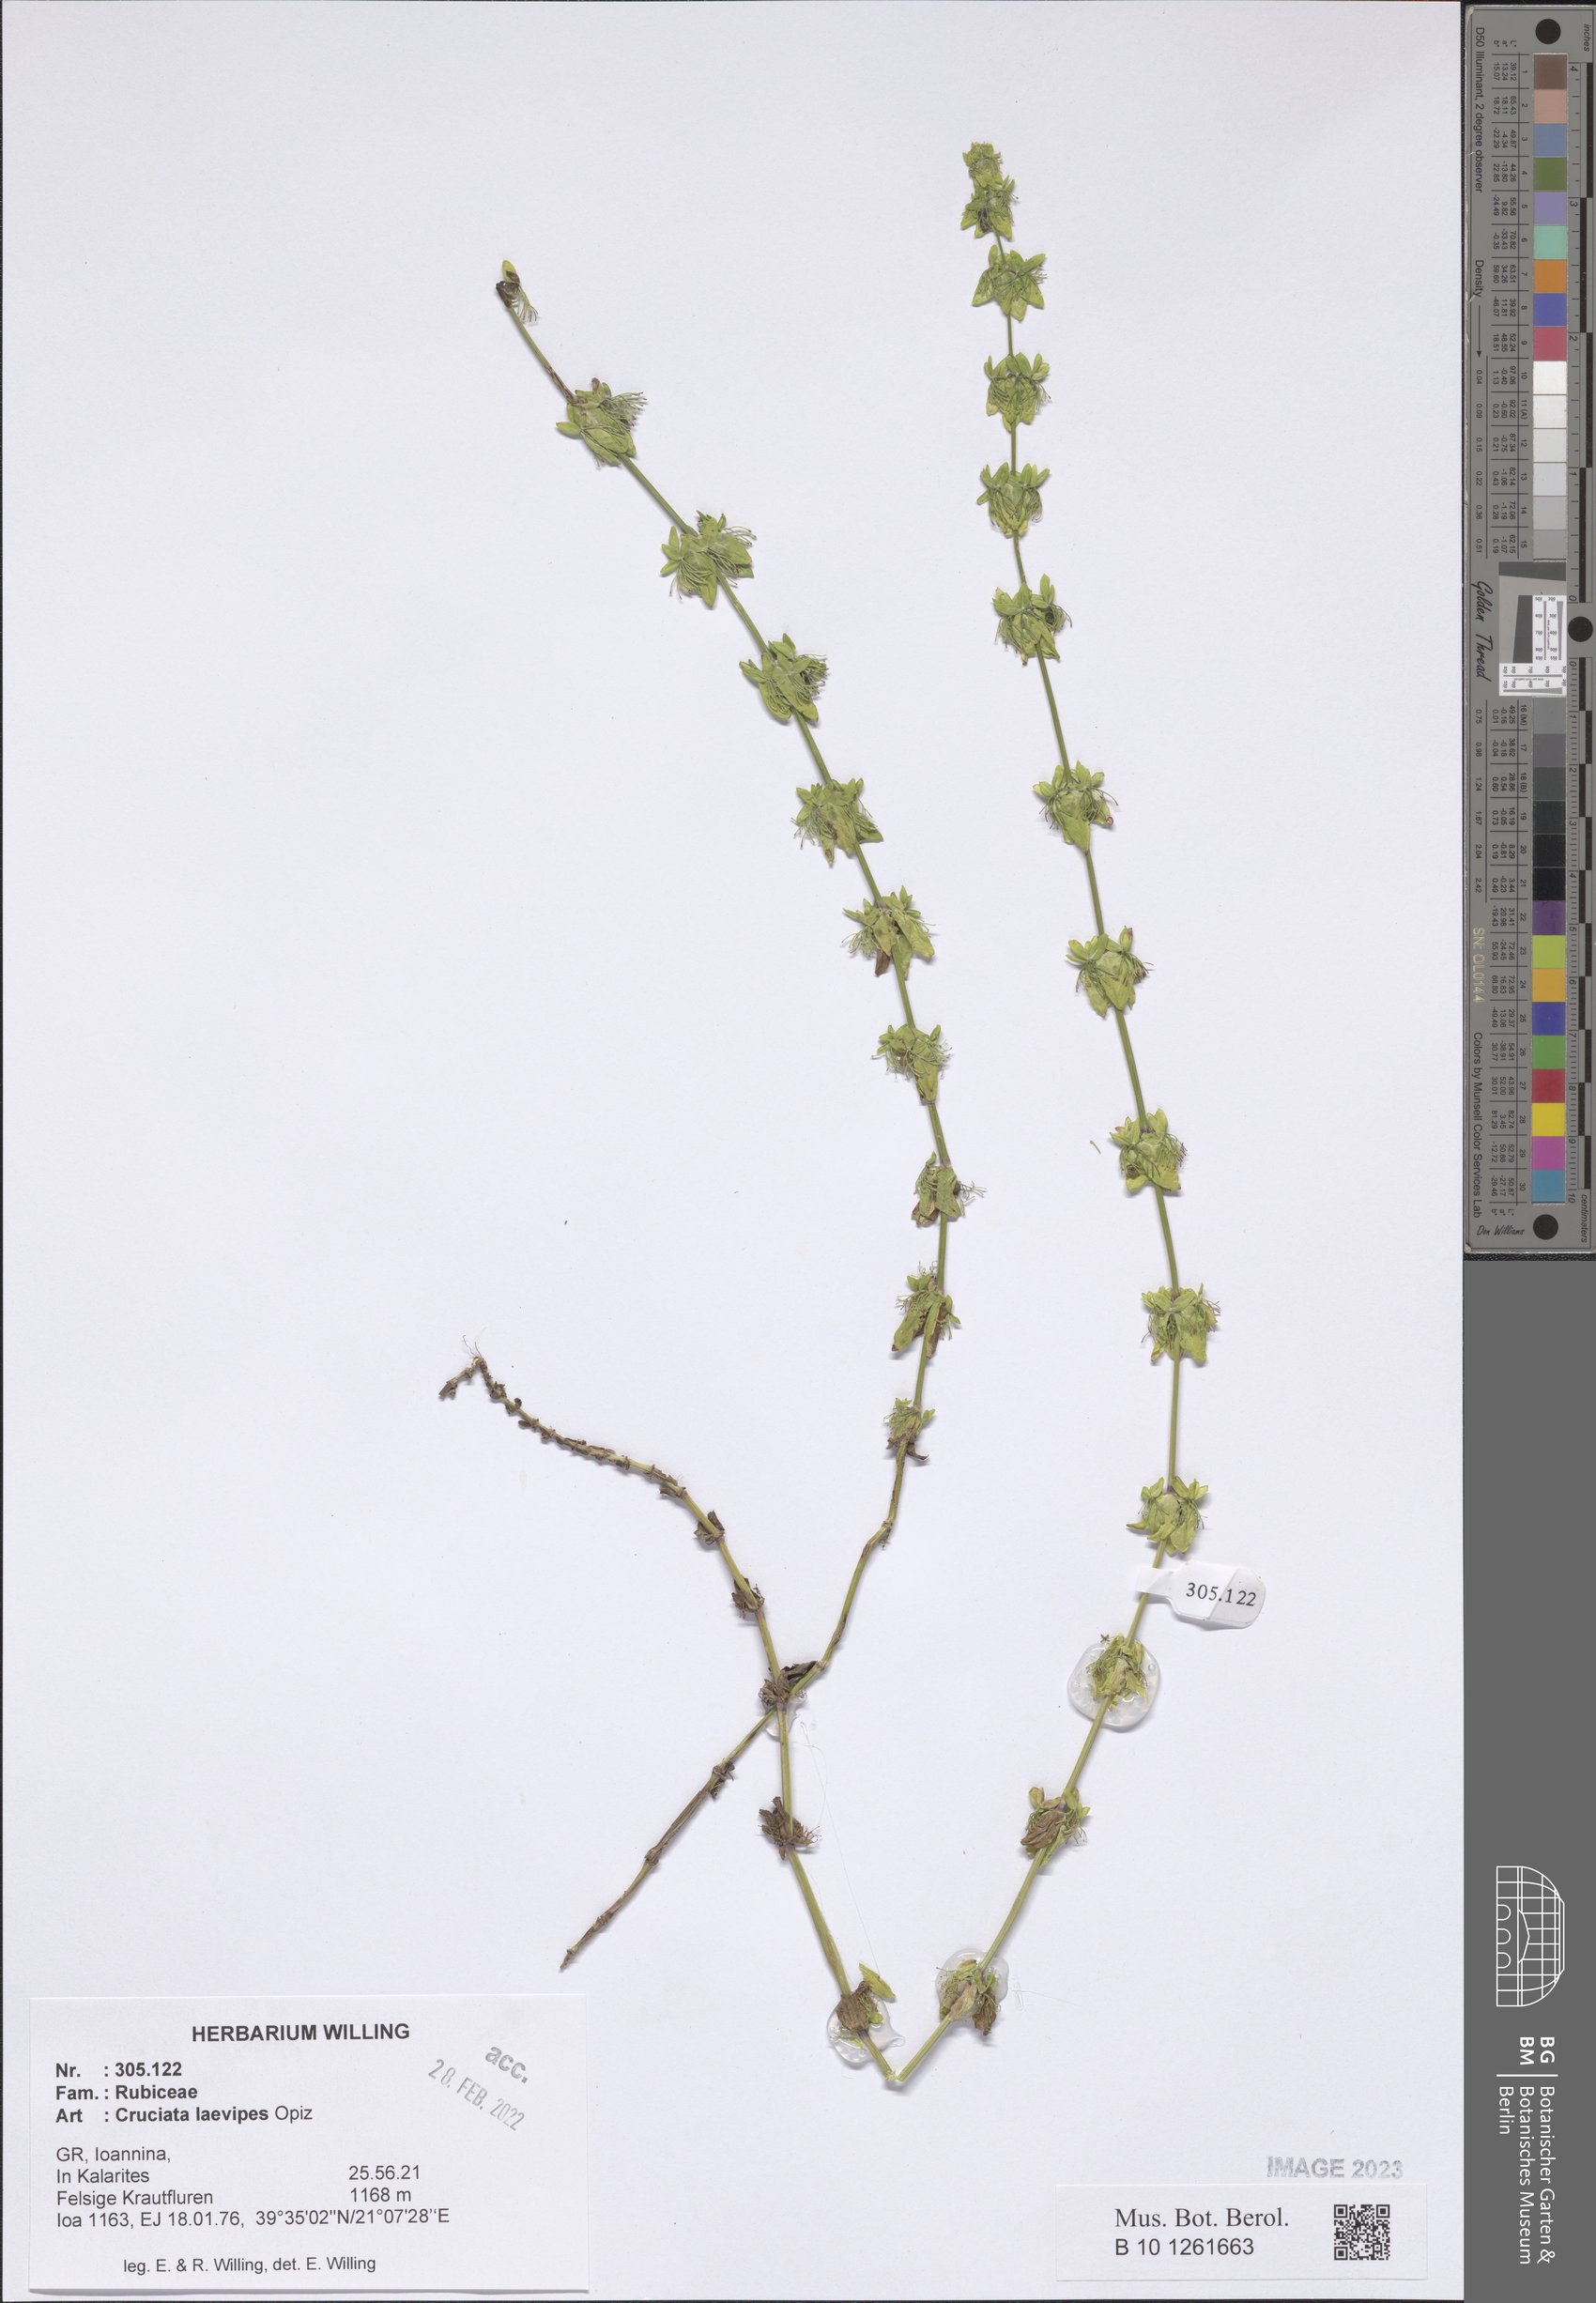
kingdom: Plantae
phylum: Tracheophyta
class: Magnoliopsida
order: Gentianales
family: Rubiaceae
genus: Cruciata
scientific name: Cruciata laevipes
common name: Crosswort
